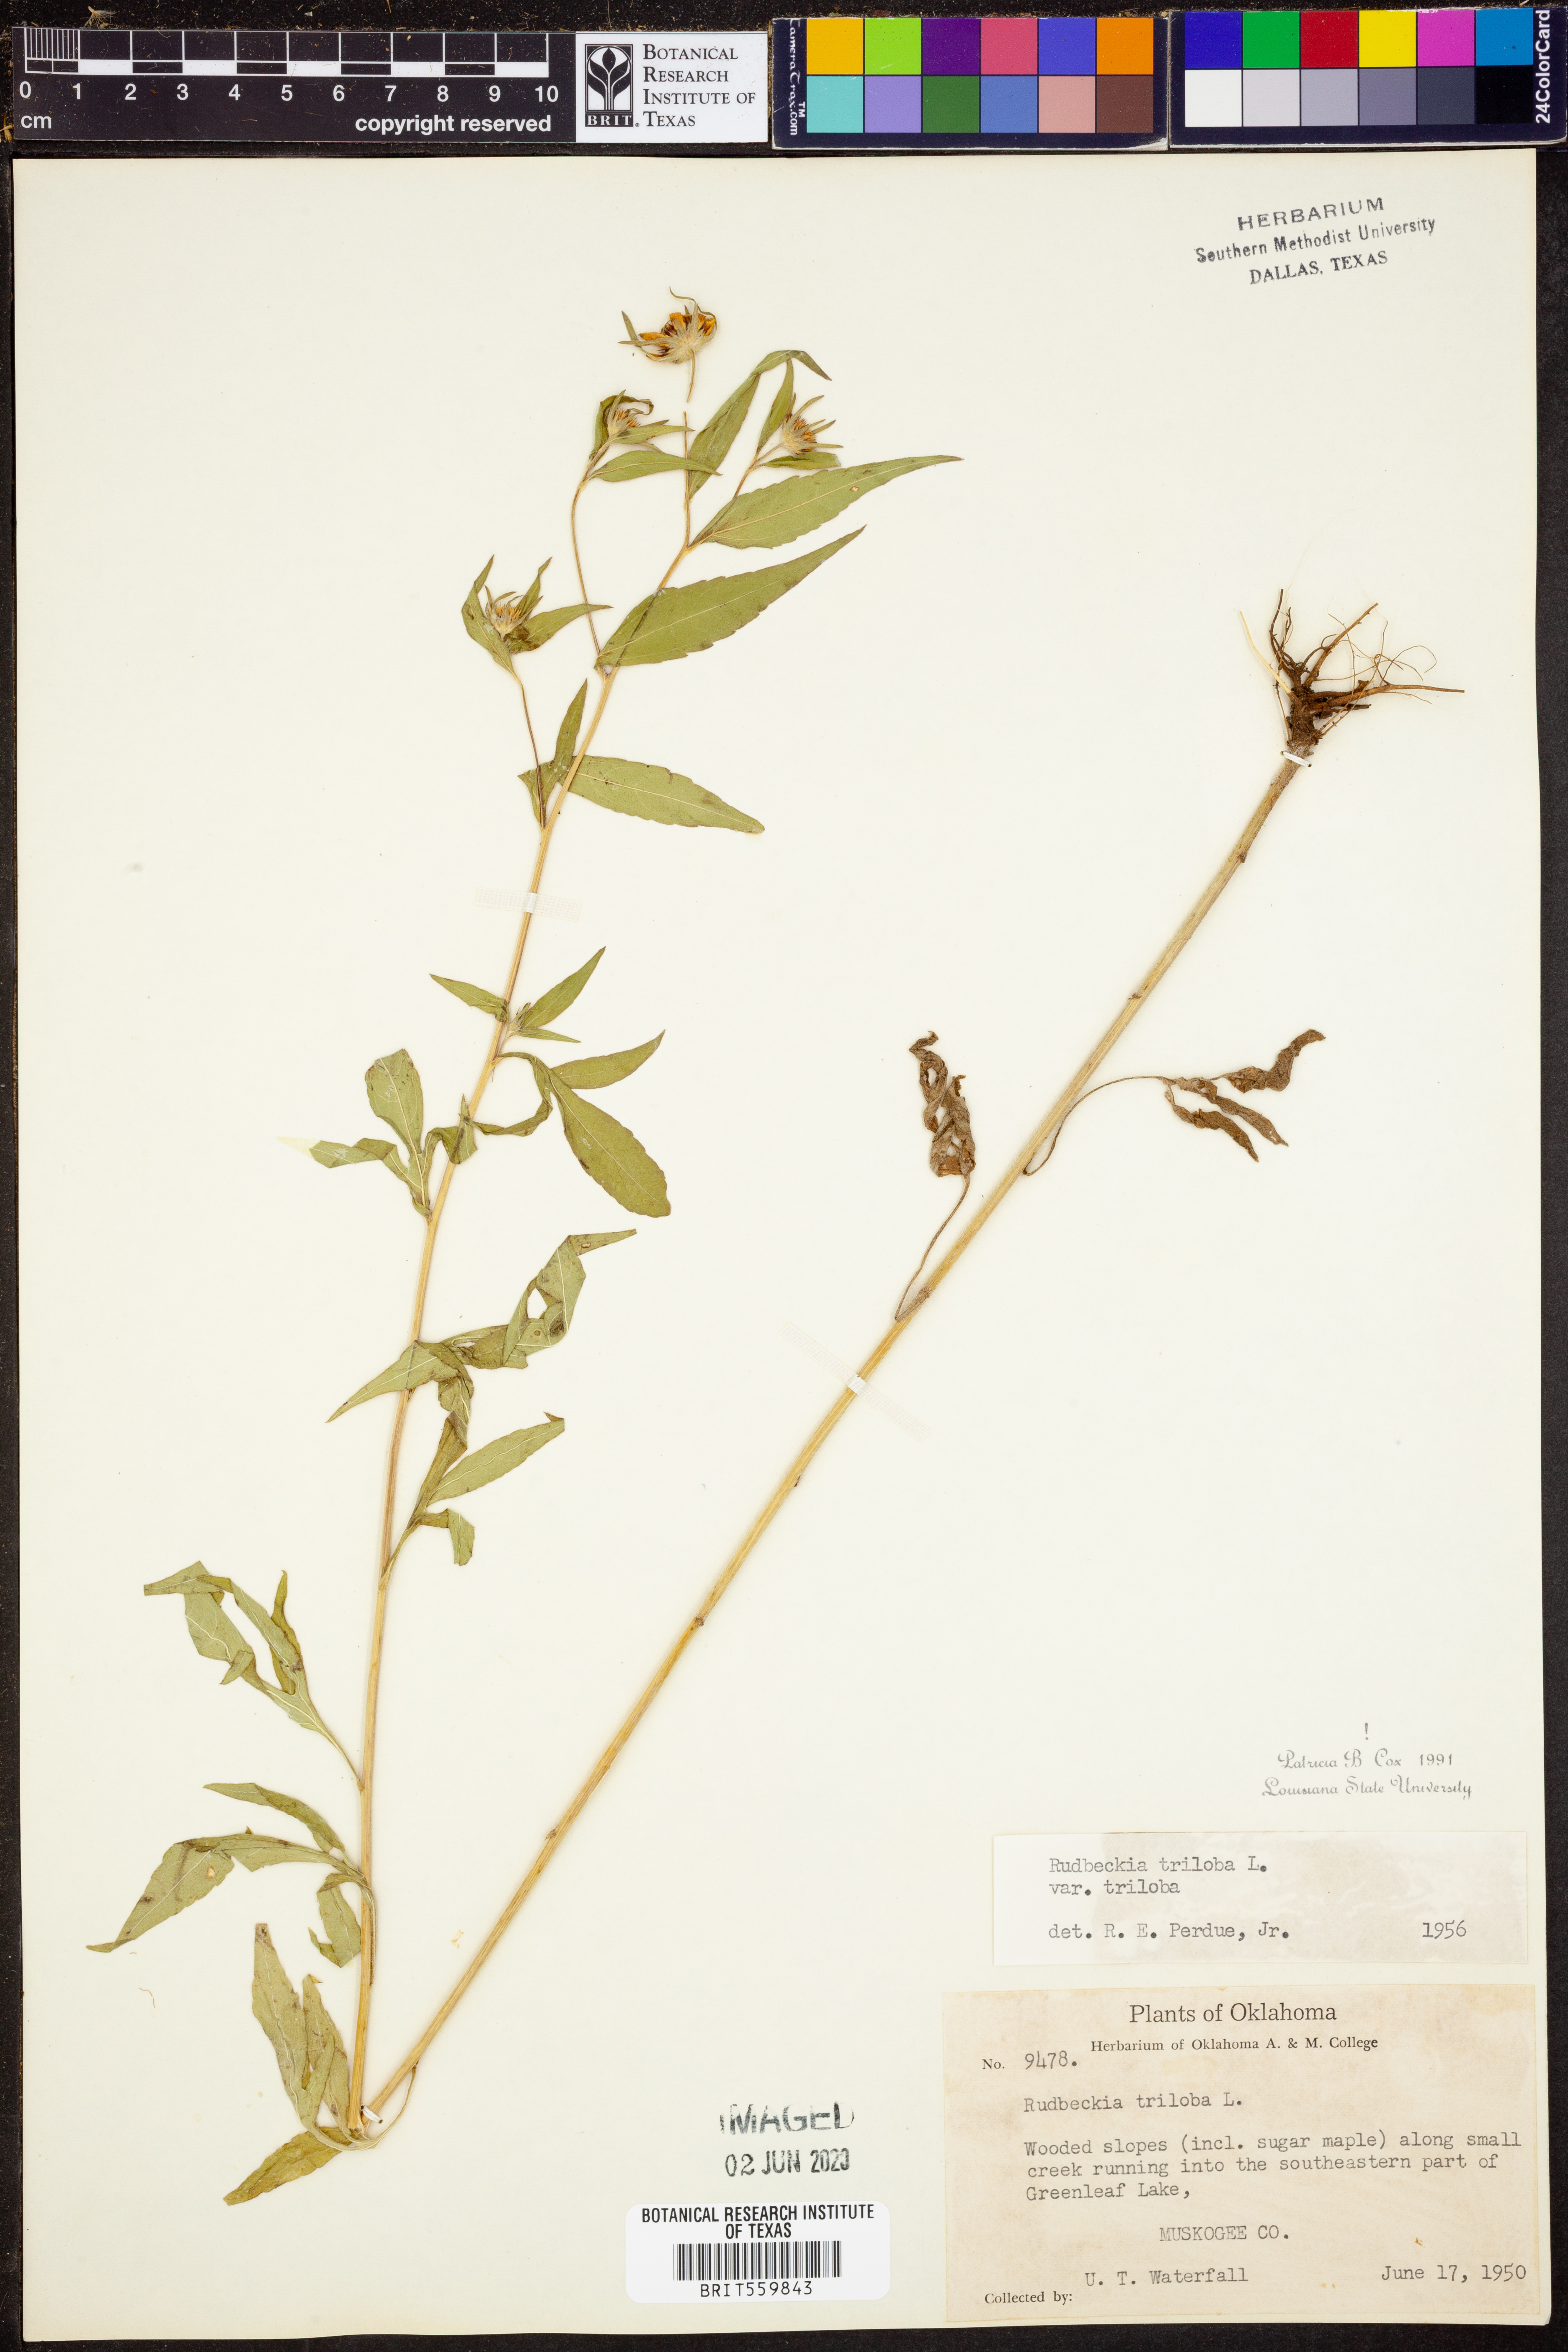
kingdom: Plantae
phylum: Tracheophyta
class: Magnoliopsida
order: Asterales
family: Asteraceae
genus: Rudbeckia
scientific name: Rudbeckia triloba
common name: Thin-leaved coneflower
